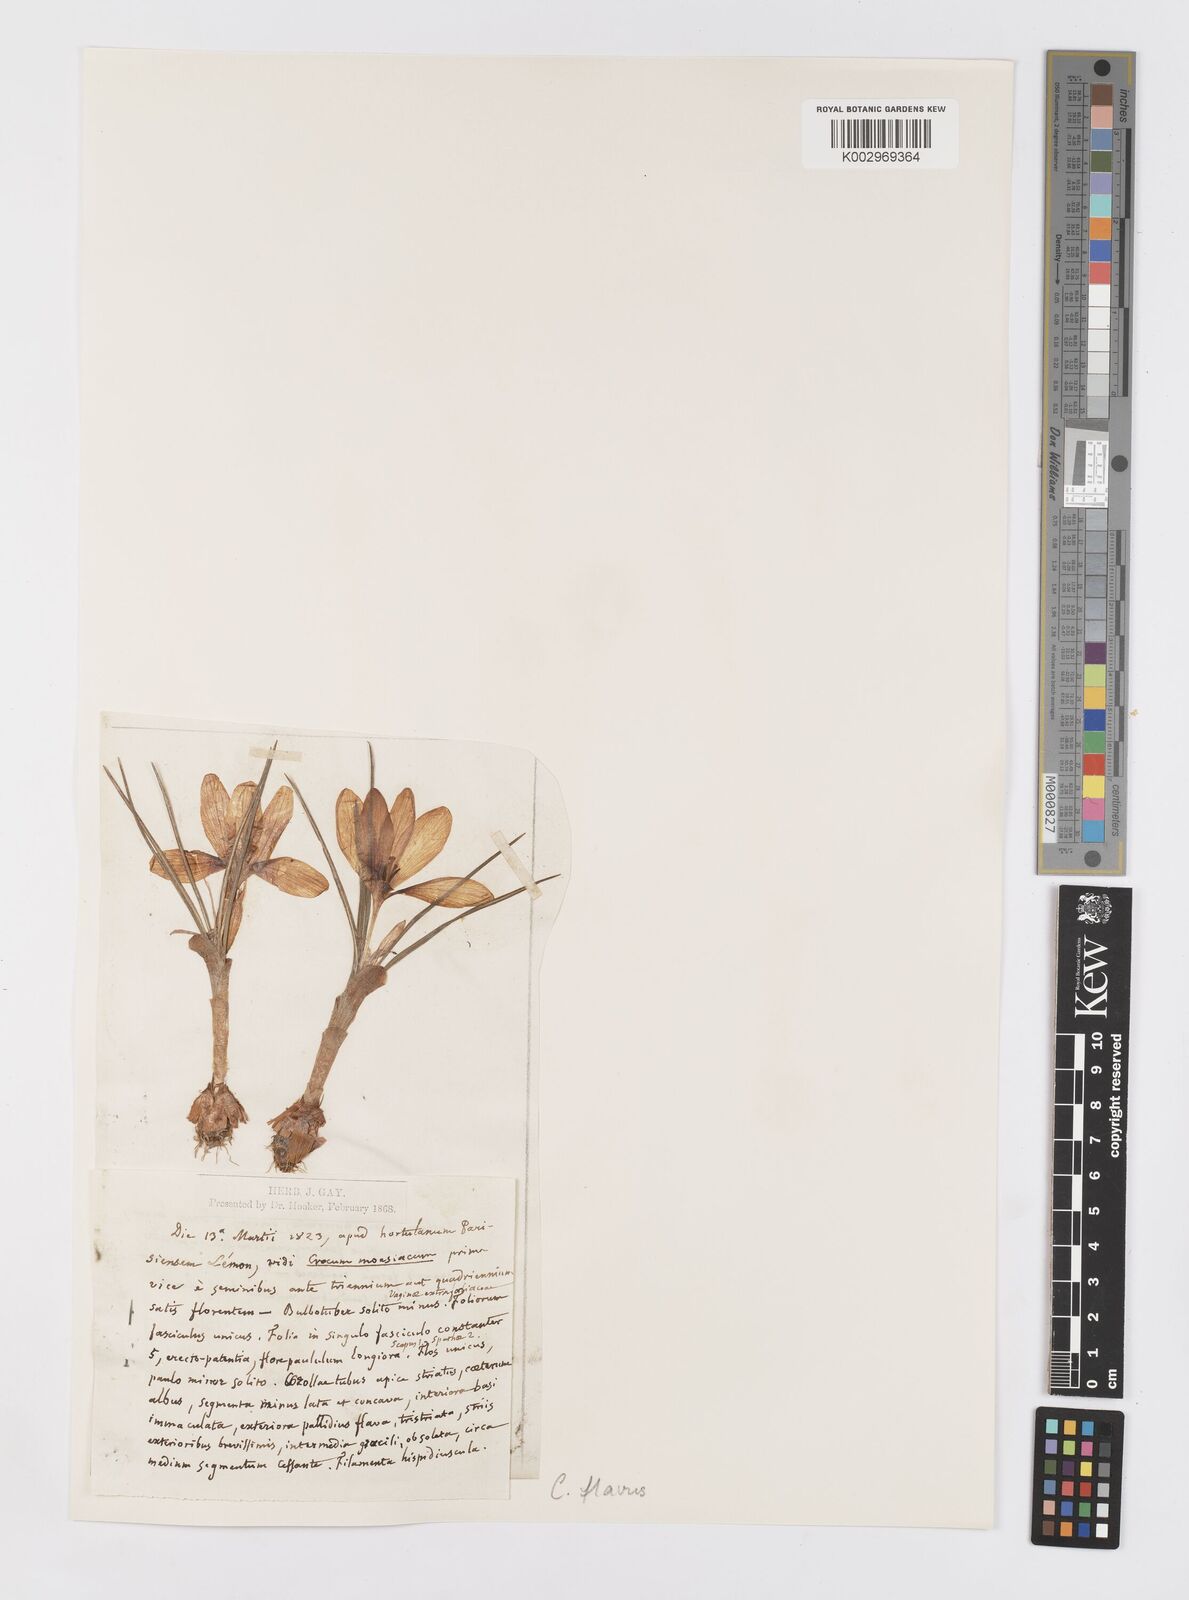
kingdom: Plantae
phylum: Tracheophyta
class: Liliopsida
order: Asparagales
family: Iridaceae
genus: Crocus
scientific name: Crocus flavus
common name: Yellow crocus
